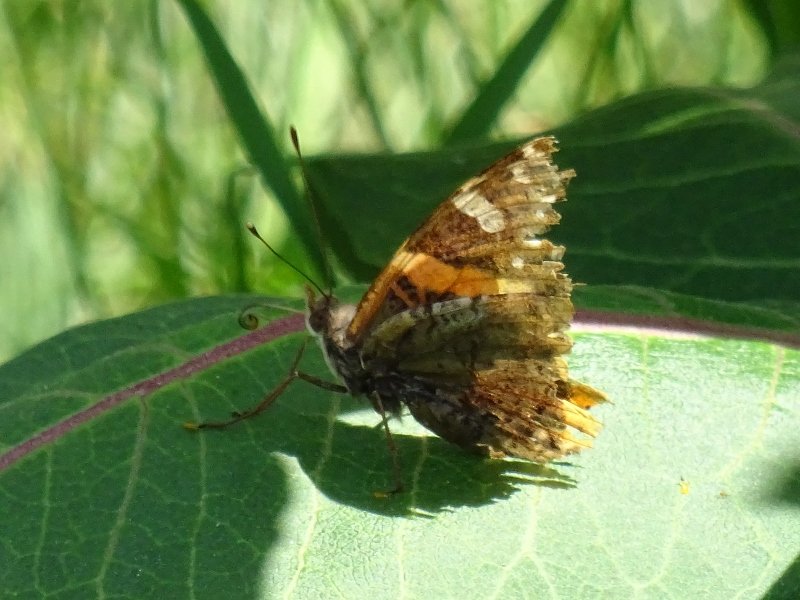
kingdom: Animalia
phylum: Arthropoda
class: Insecta
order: Lepidoptera
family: Nymphalidae
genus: Vanessa
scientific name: Vanessa atalanta
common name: Red Admiral
